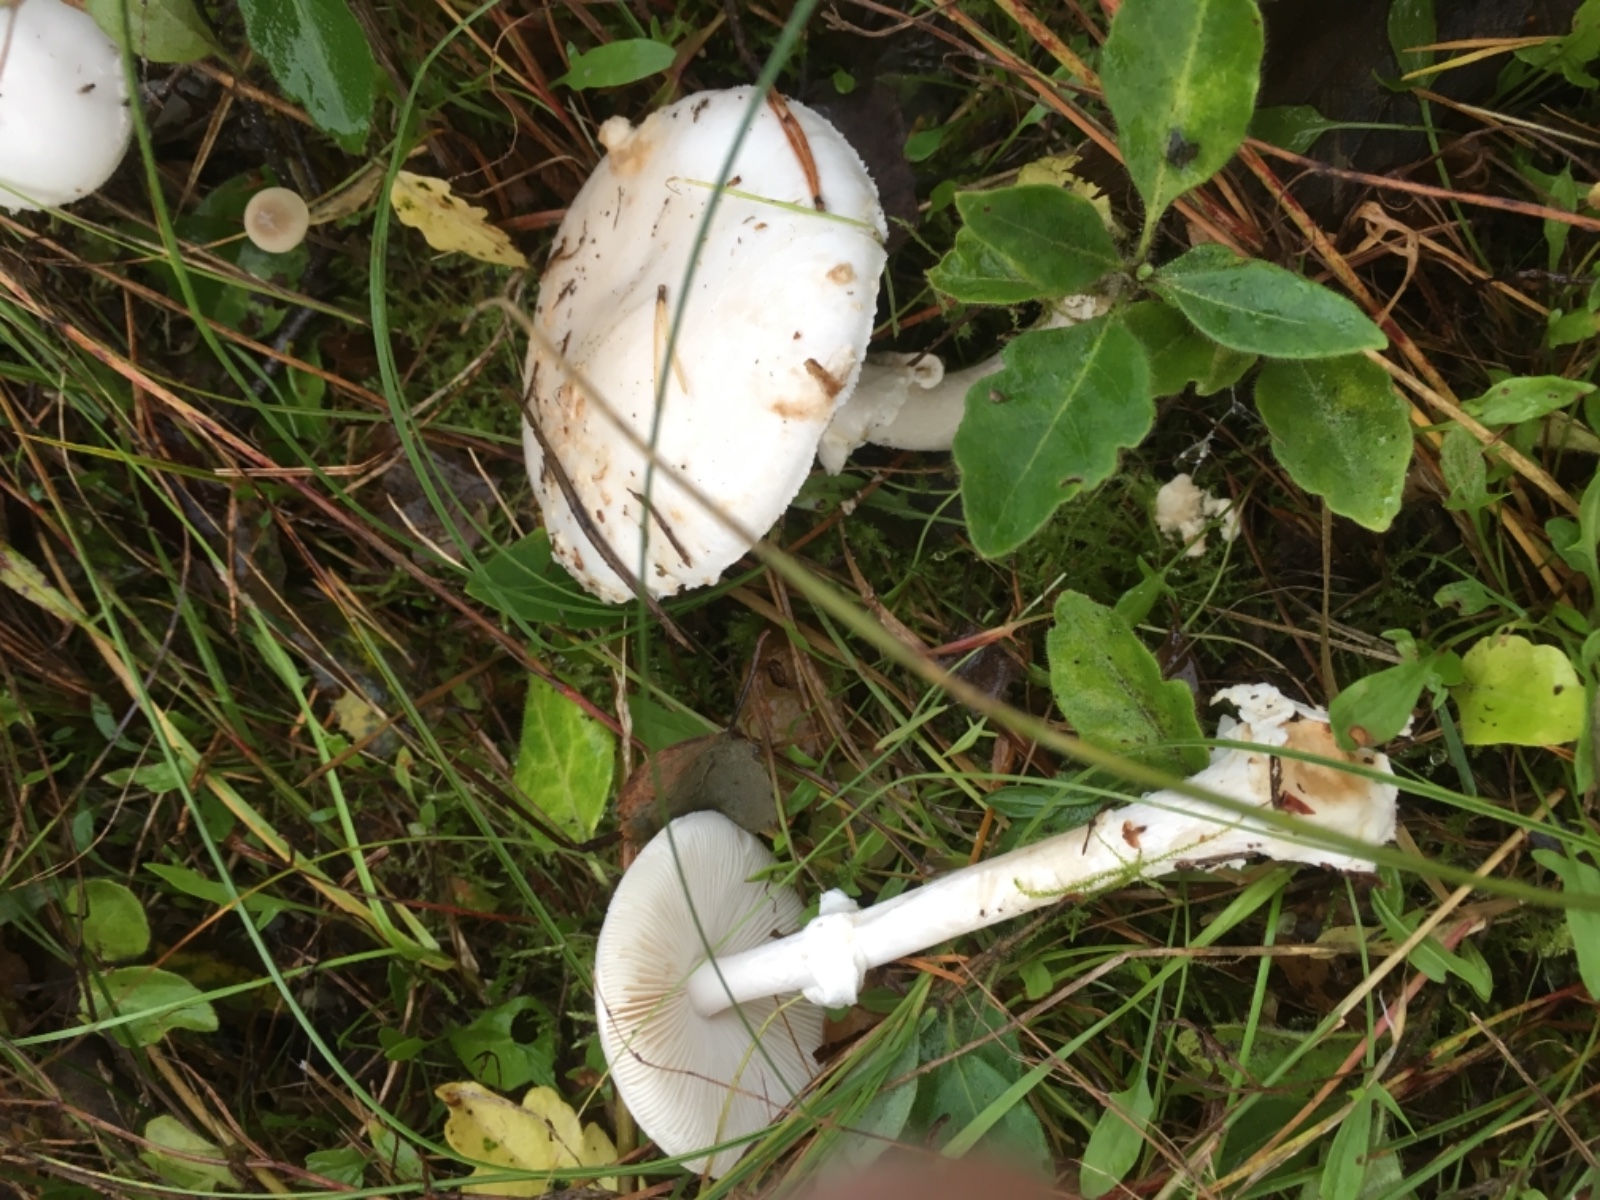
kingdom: Fungi
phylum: Basidiomycota
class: Agaricomycetes
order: Agaricales
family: Amanitaceae
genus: Amanita
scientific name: Amanita citrina
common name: False death-cap
